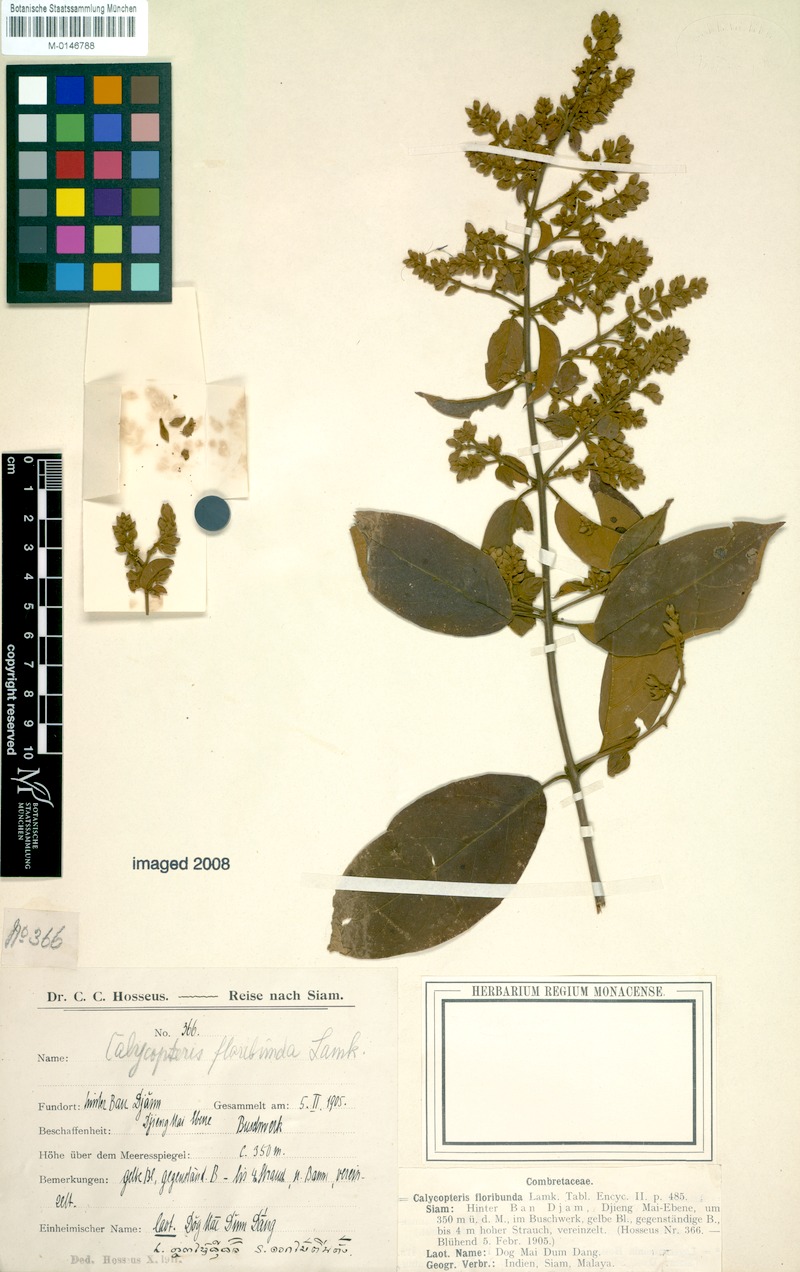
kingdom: Plantae
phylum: Tracheophyta
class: Magnoliopsida
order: Myrtales
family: Combretaceae
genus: Getonia
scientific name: Getonia floribunda
